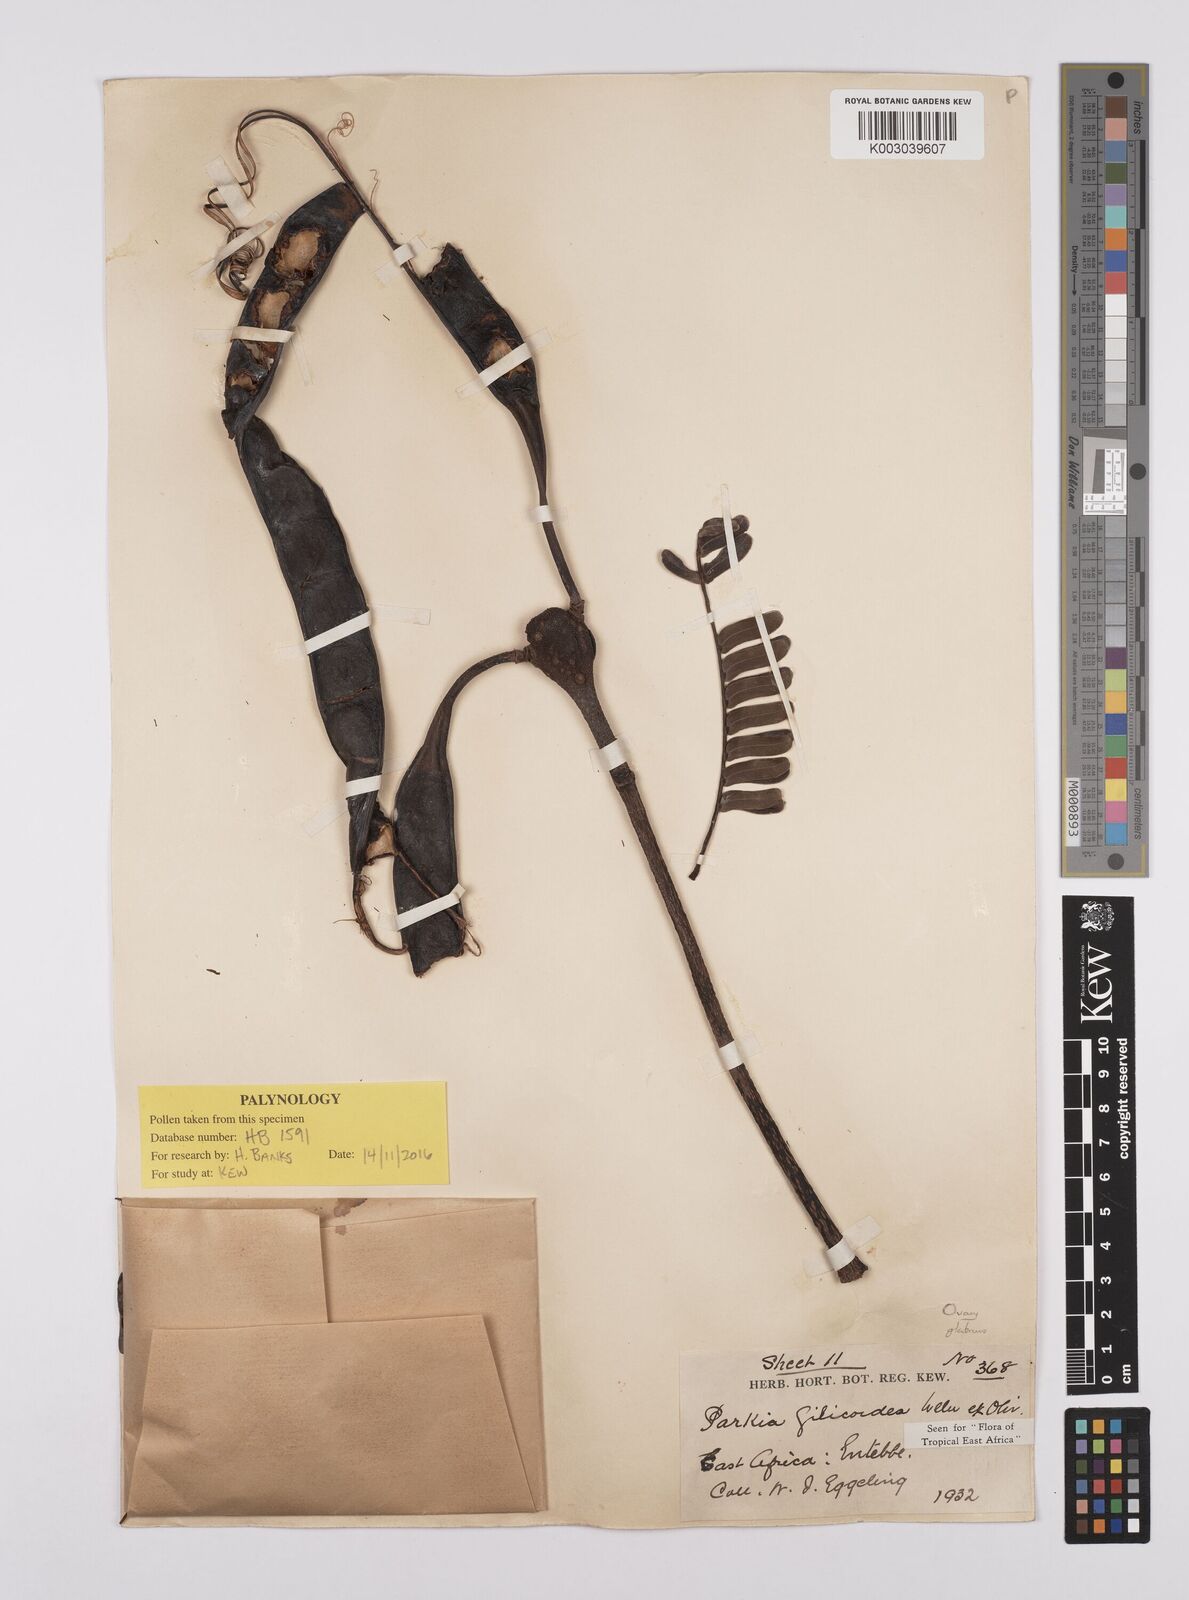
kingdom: Plantae
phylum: Tracheophyta
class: Magnoliopsida
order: Fabales
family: Fabaceae
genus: Parkia
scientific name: Parkia filicoidea
